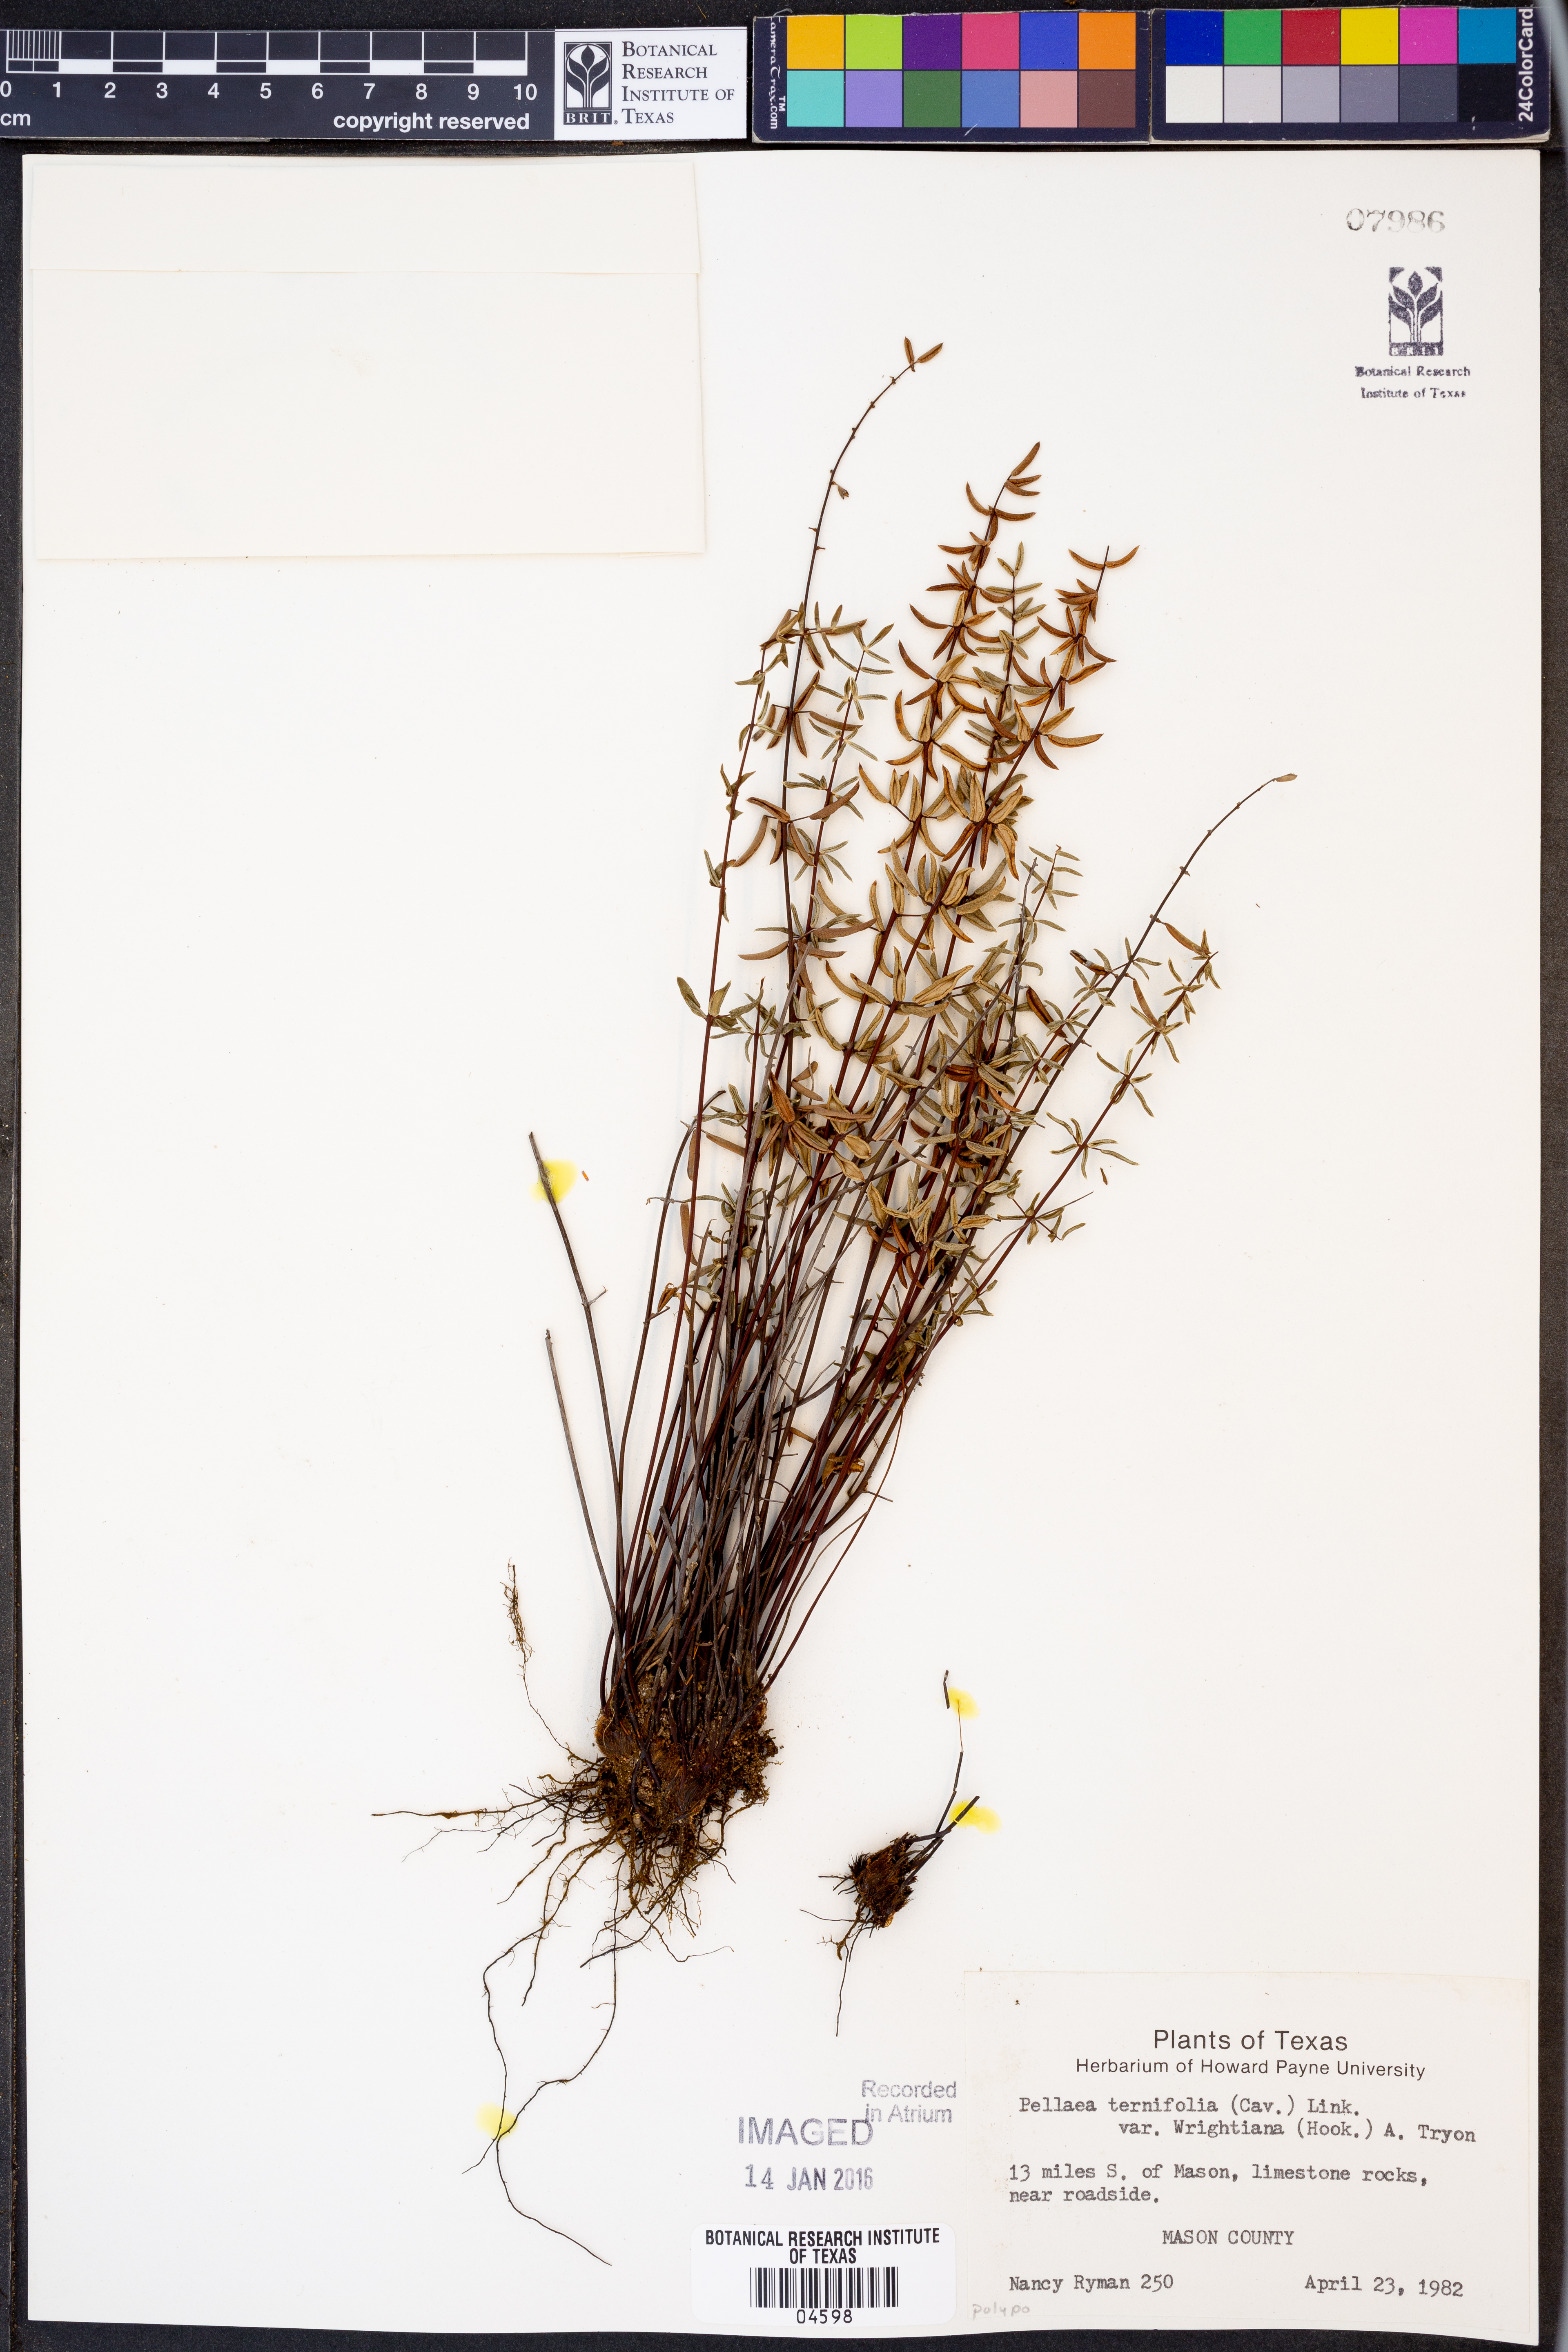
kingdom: Plantae
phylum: Tracheophyta
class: Polypodiopsida
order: Polypodiales
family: Pteridaceae
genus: Pellaea
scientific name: Pellaea wrightiana
